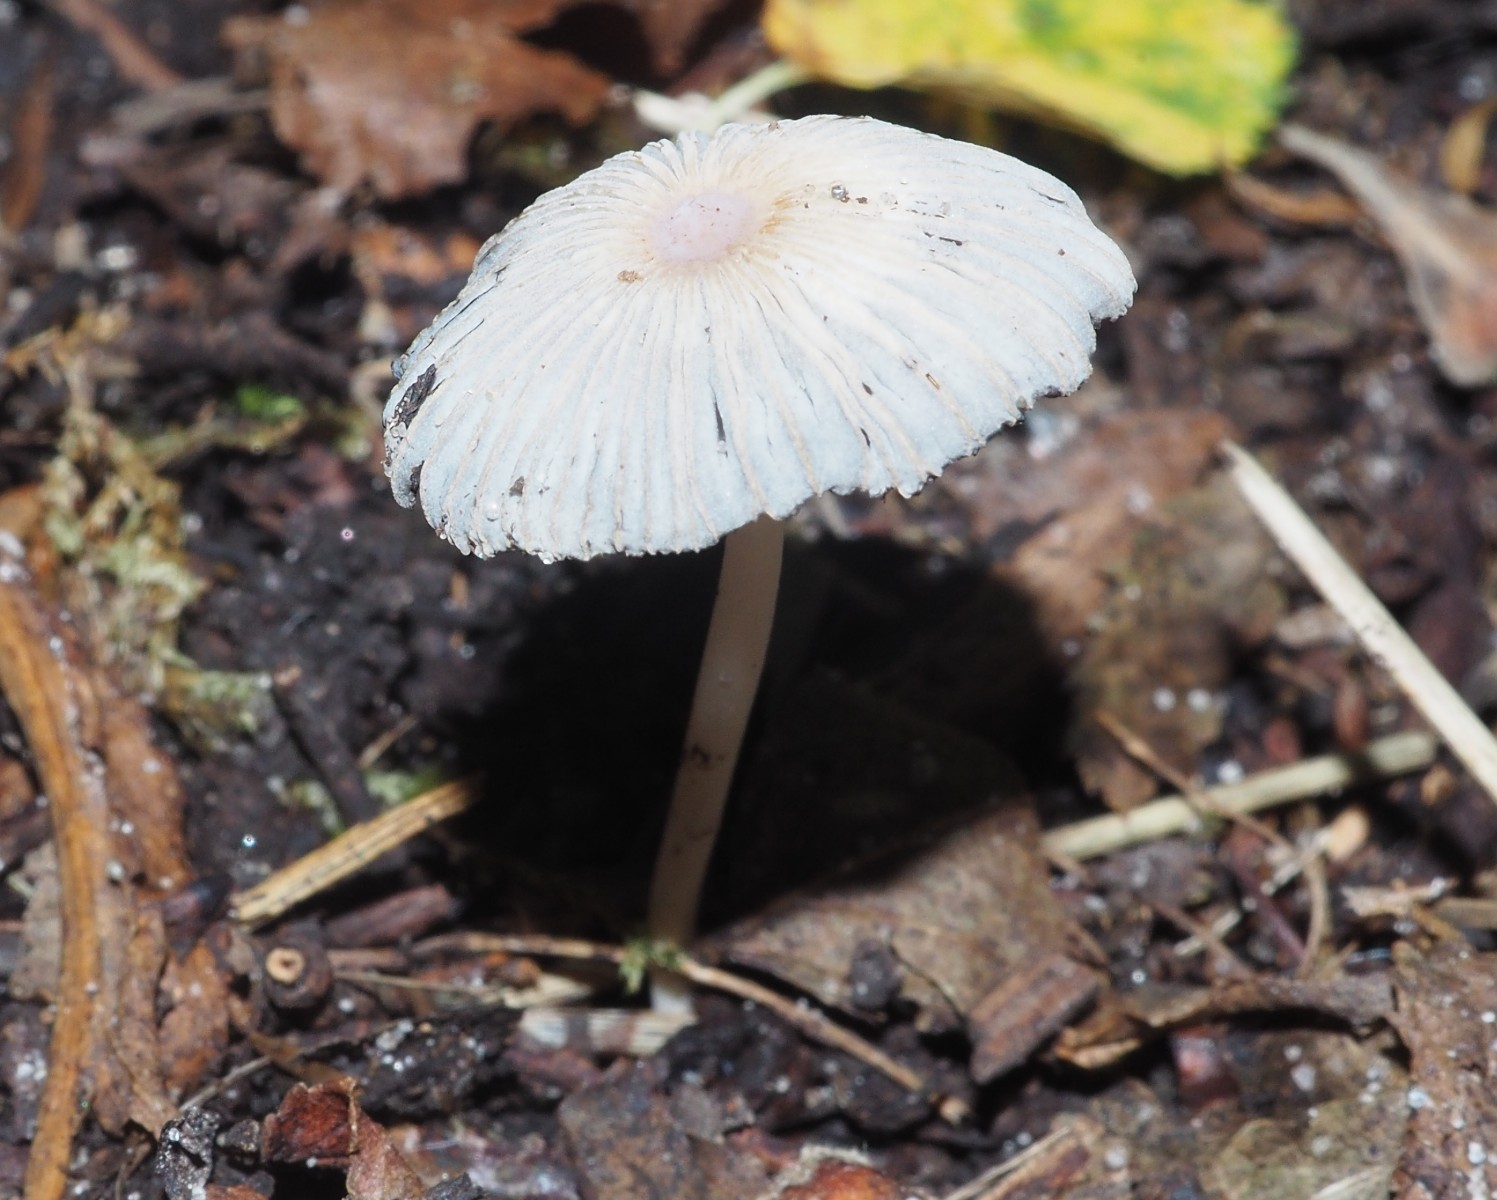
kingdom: Fungi
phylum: Basidiomycota
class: Agaricomycetes
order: Agaricales
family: Psathyrellaceae
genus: Parasola
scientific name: Parasola schroeteri
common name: bredsporet hjulhat
